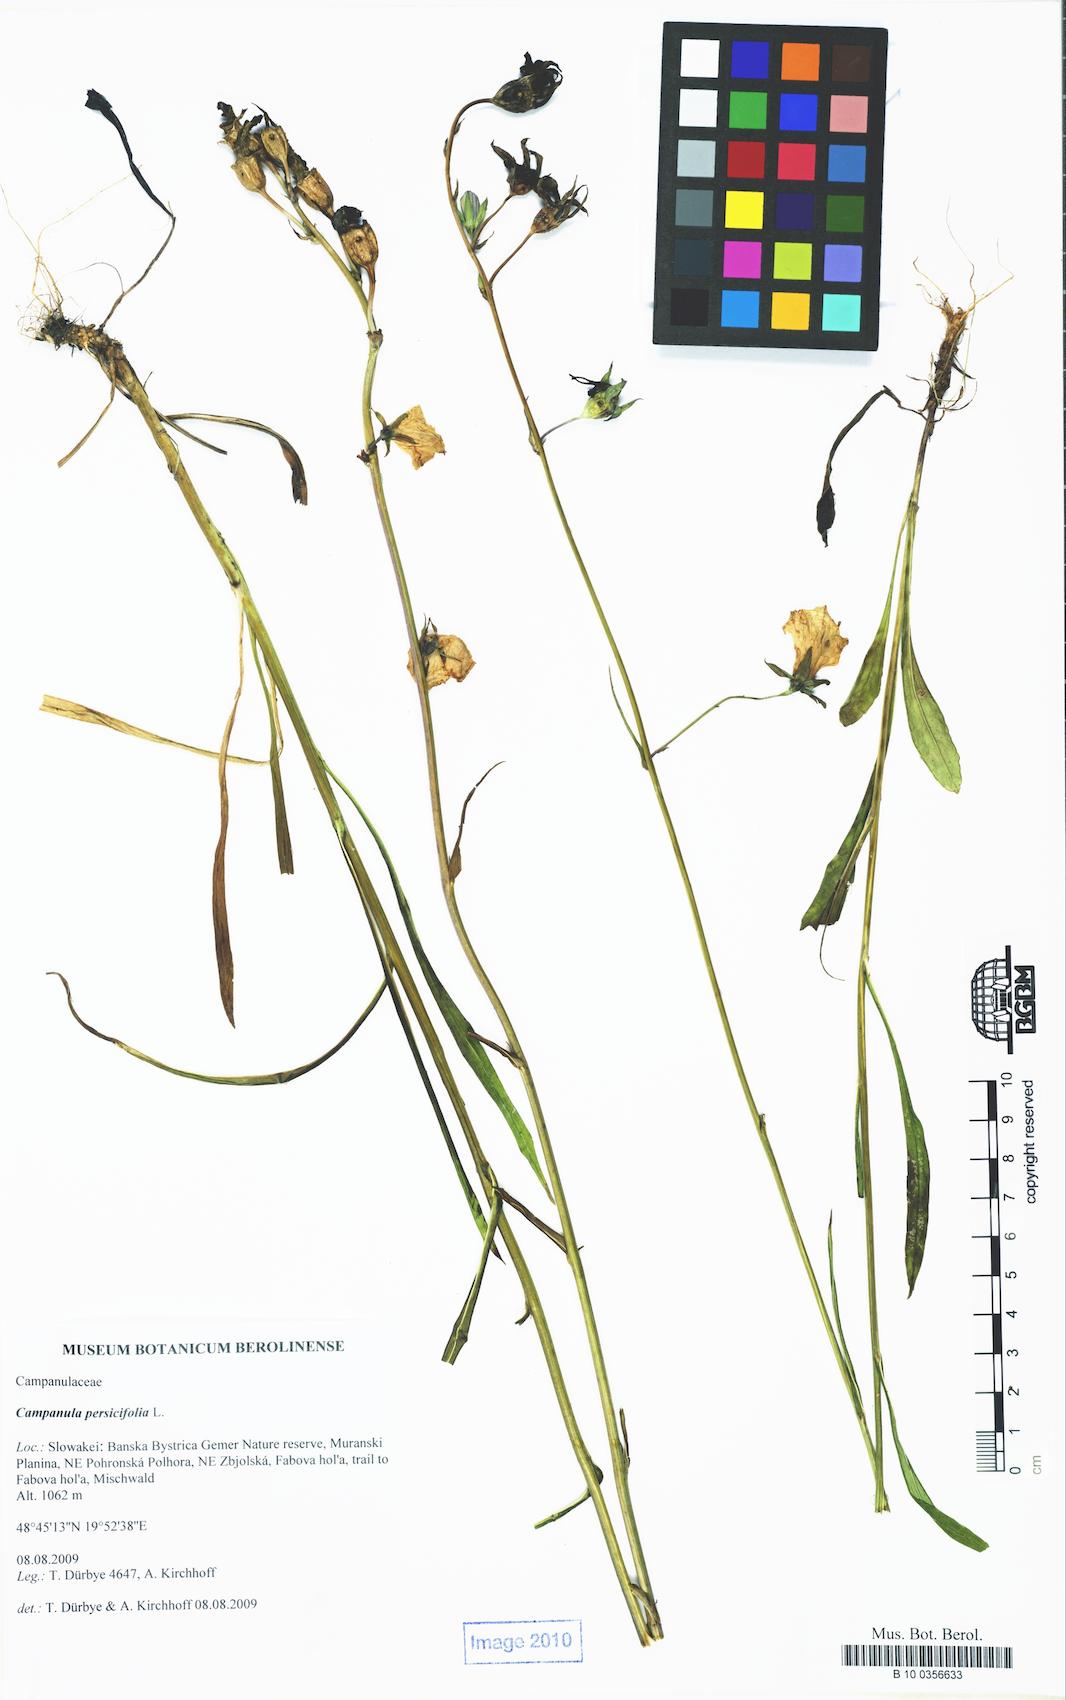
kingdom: Plantae
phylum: Tracheophyta
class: Magnoliopsida
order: Asterales
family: Campanulaceae
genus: Campanula
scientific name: Campanula persicifolia
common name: Peach-leaved bellflower
